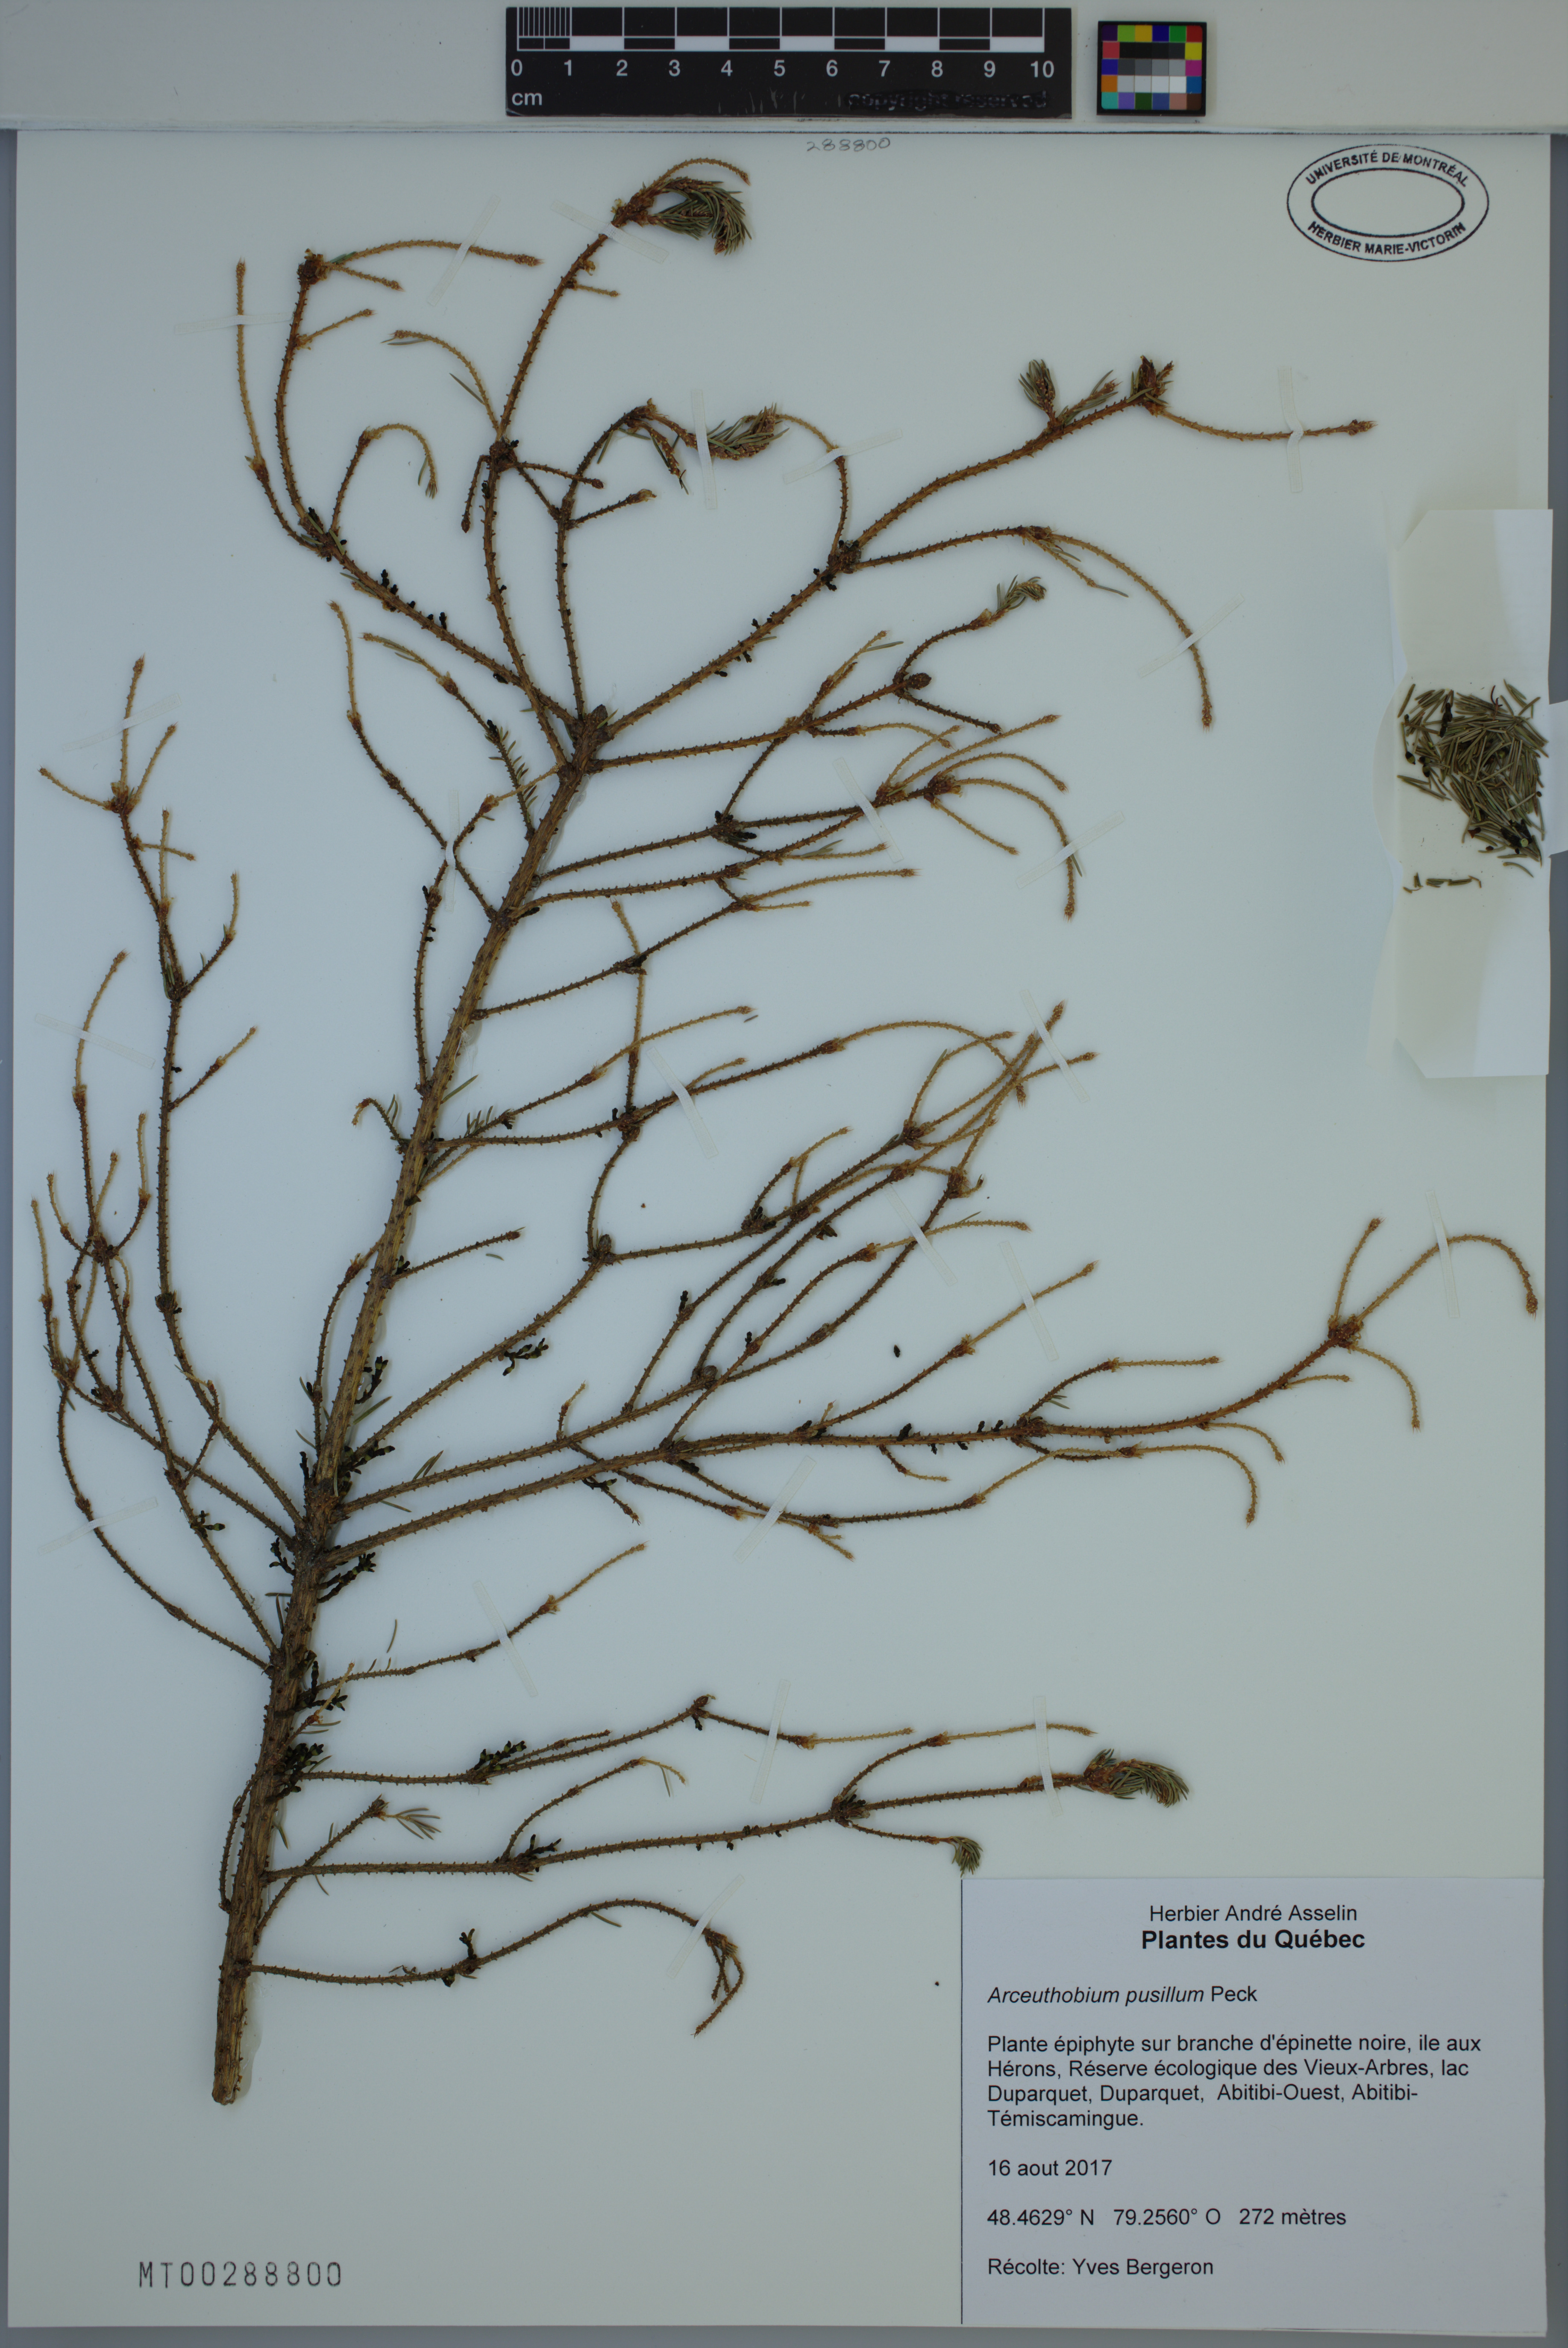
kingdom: Plantae
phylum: Tracheophyta
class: Magnoliopsida
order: Santalales
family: Viscaceae
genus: Arceuthobium
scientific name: Arceuthobium pusillum
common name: Dwarf-mistletoe
